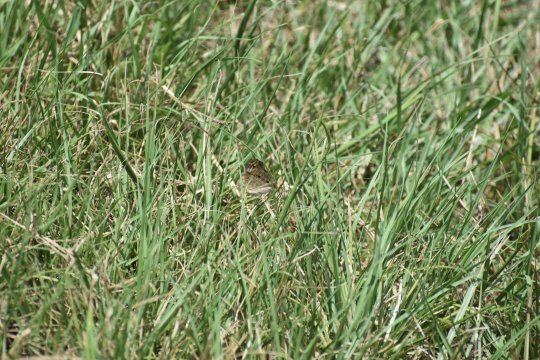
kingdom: Animalia
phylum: Arthropoda
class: Insecta
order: Lepidoptera
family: Nymphalidae
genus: Junonia
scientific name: Junonia coenia
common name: Common Buckeye
